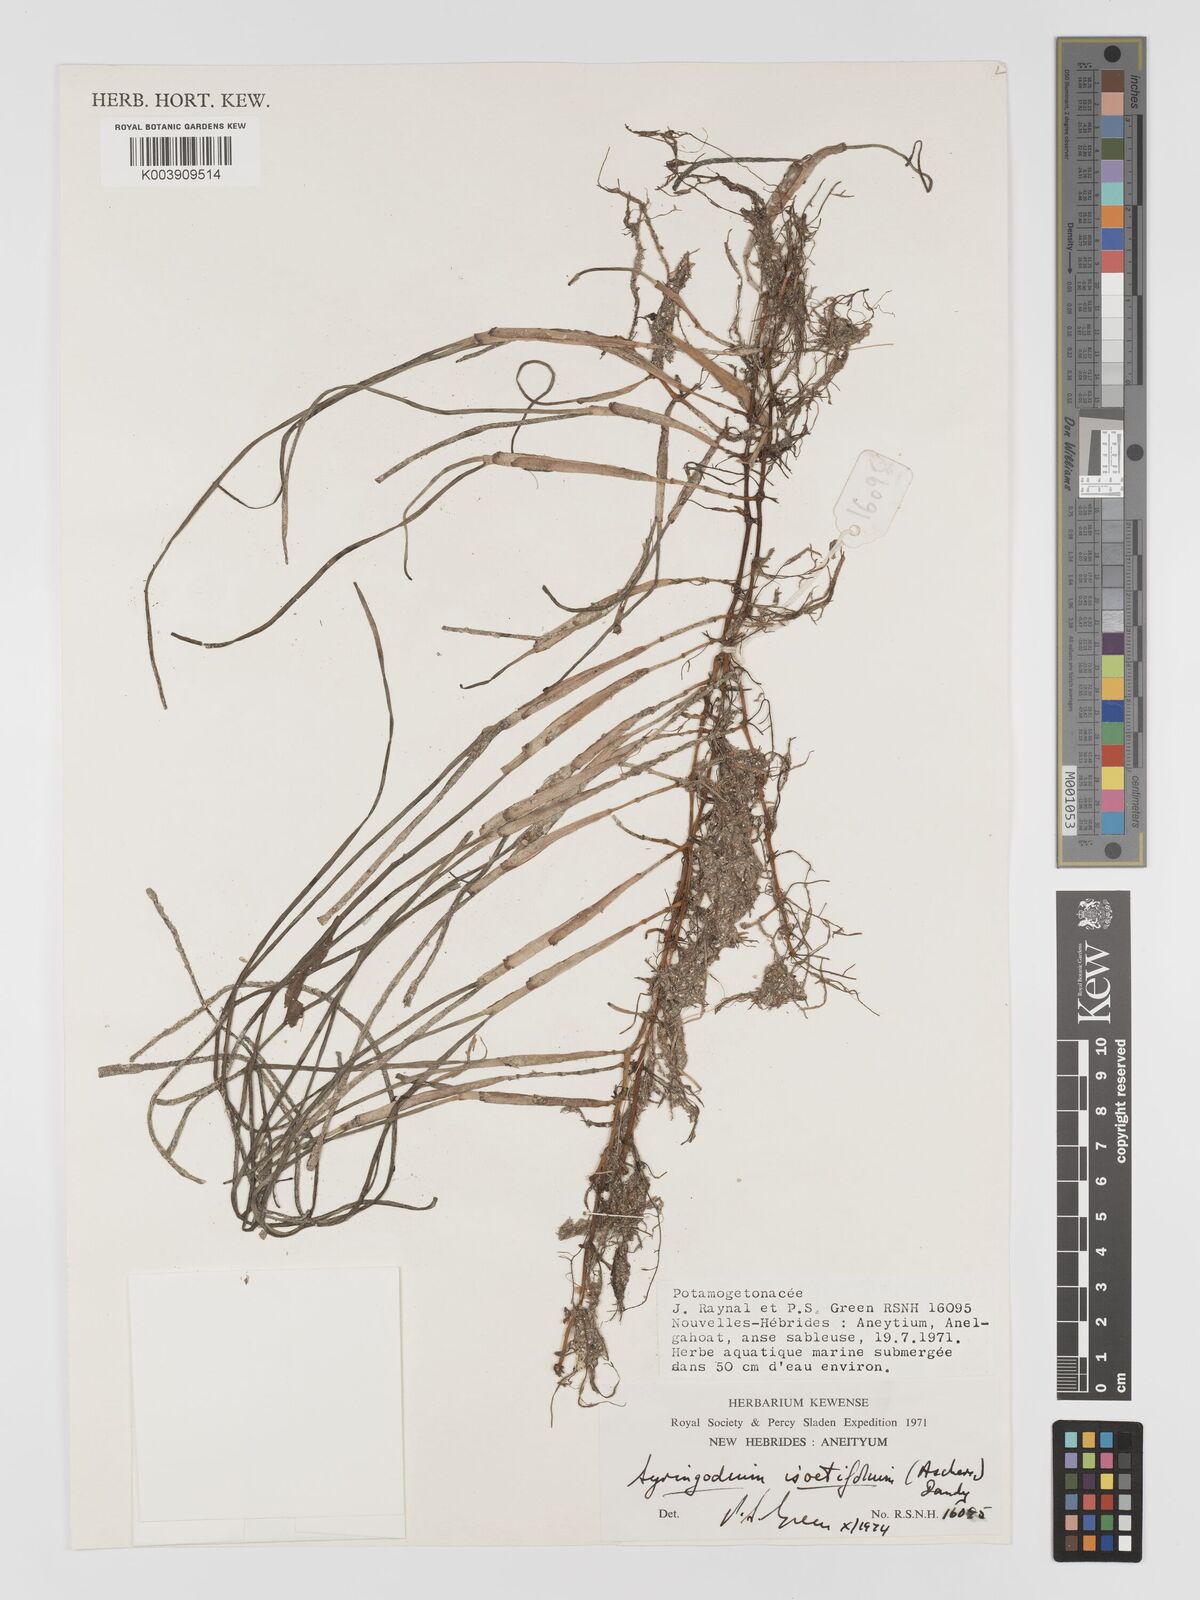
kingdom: Plantae
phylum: Tracheophyta
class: Liliopsida
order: Alismatales
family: Cymodoceaceae
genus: Syringodium
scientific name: Syringodium isoetifolium
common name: Species code: si
